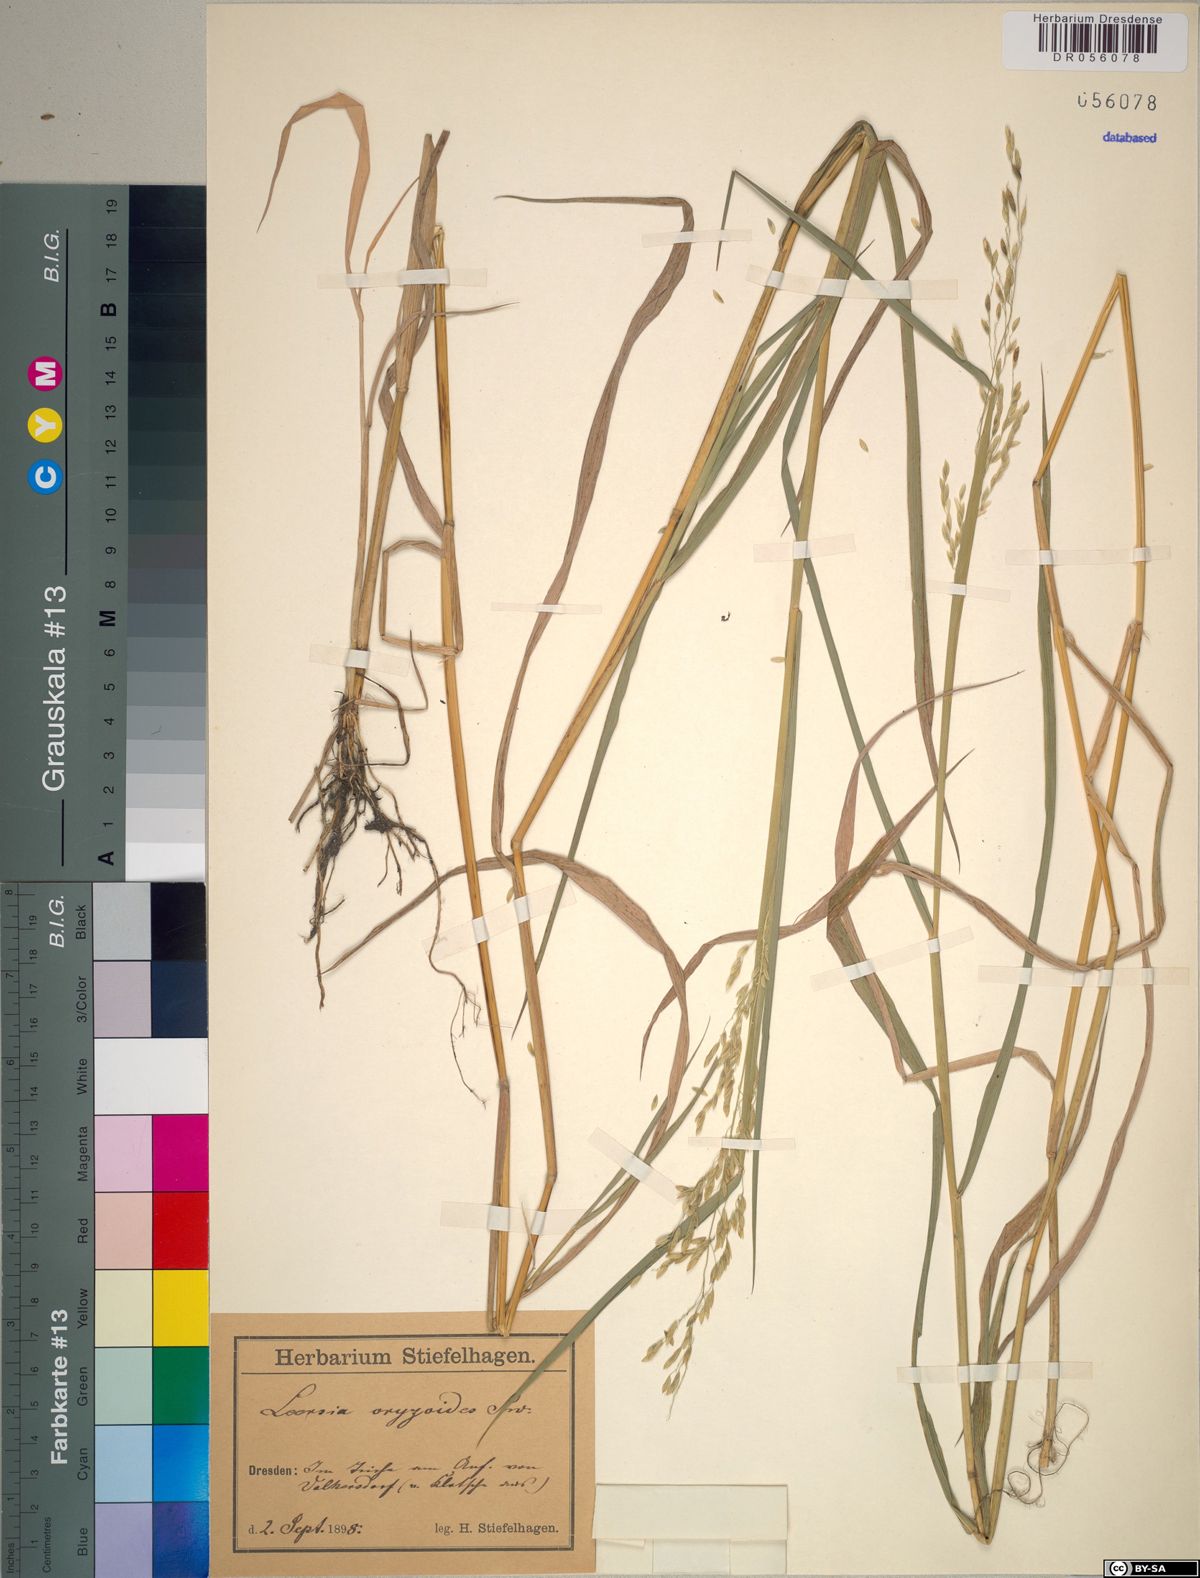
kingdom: Plantae
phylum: Tracheophyta
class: Liliopsida
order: Poales
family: Poaceae
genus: Leersia
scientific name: Leersia oryzoides
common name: Cut-grass
